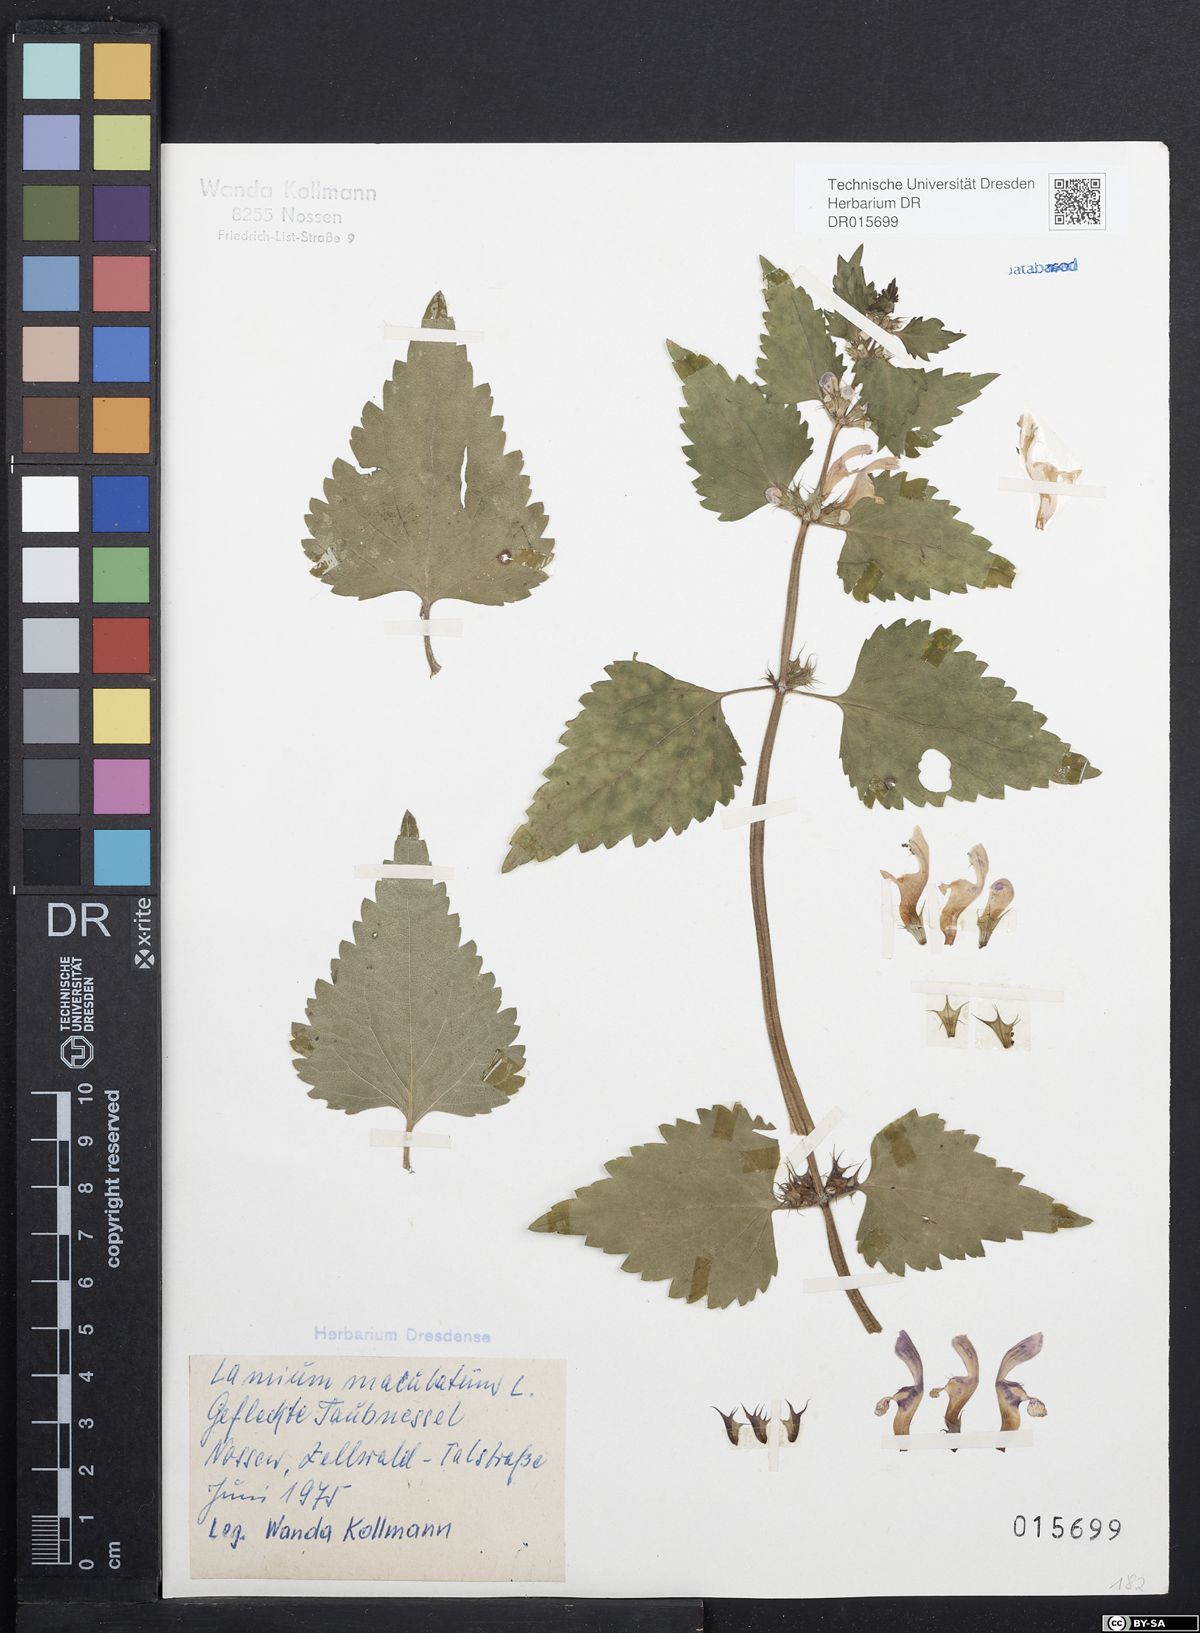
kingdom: Plantae
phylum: Tracheophyta
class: Magnoliopsida
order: Lamiales
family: Lamiaceae
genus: Lamium
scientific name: Lamium maculatum
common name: Spotted dead-nettle
